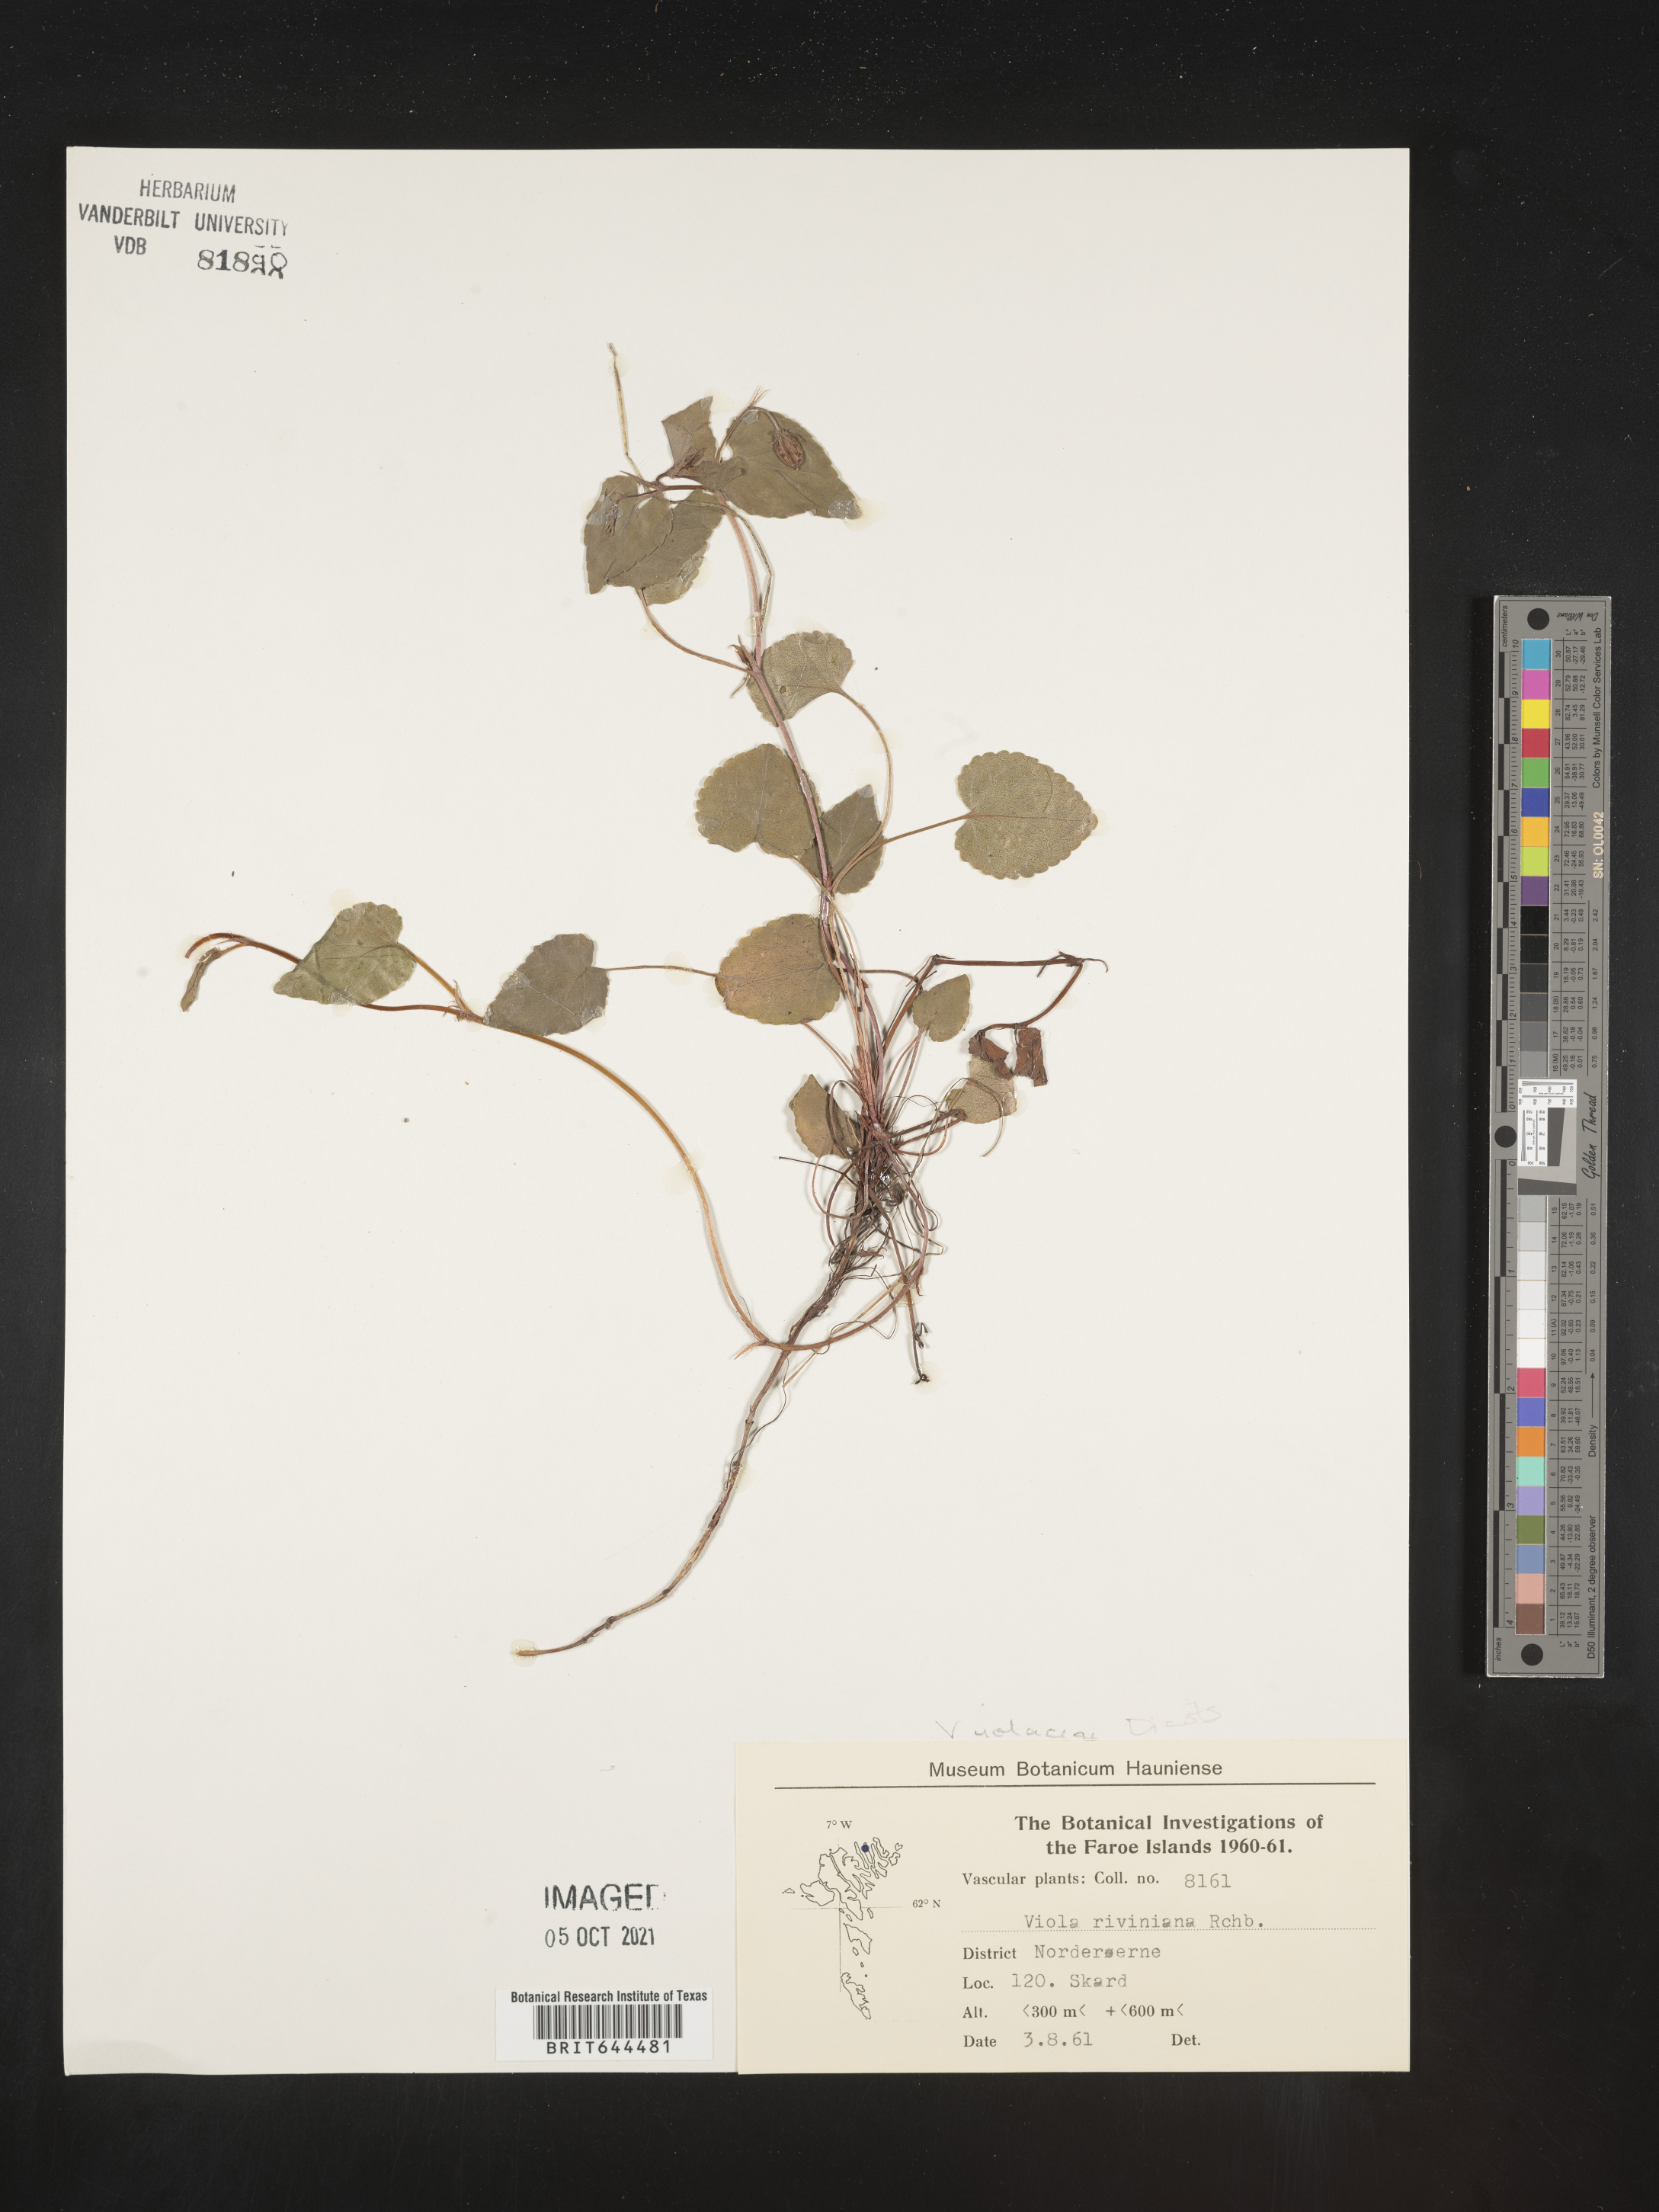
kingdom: Plantae
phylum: Tracheophyta
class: Magnoliopsida
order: Malpighiales
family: Violaceae
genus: Viola
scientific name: Viola
